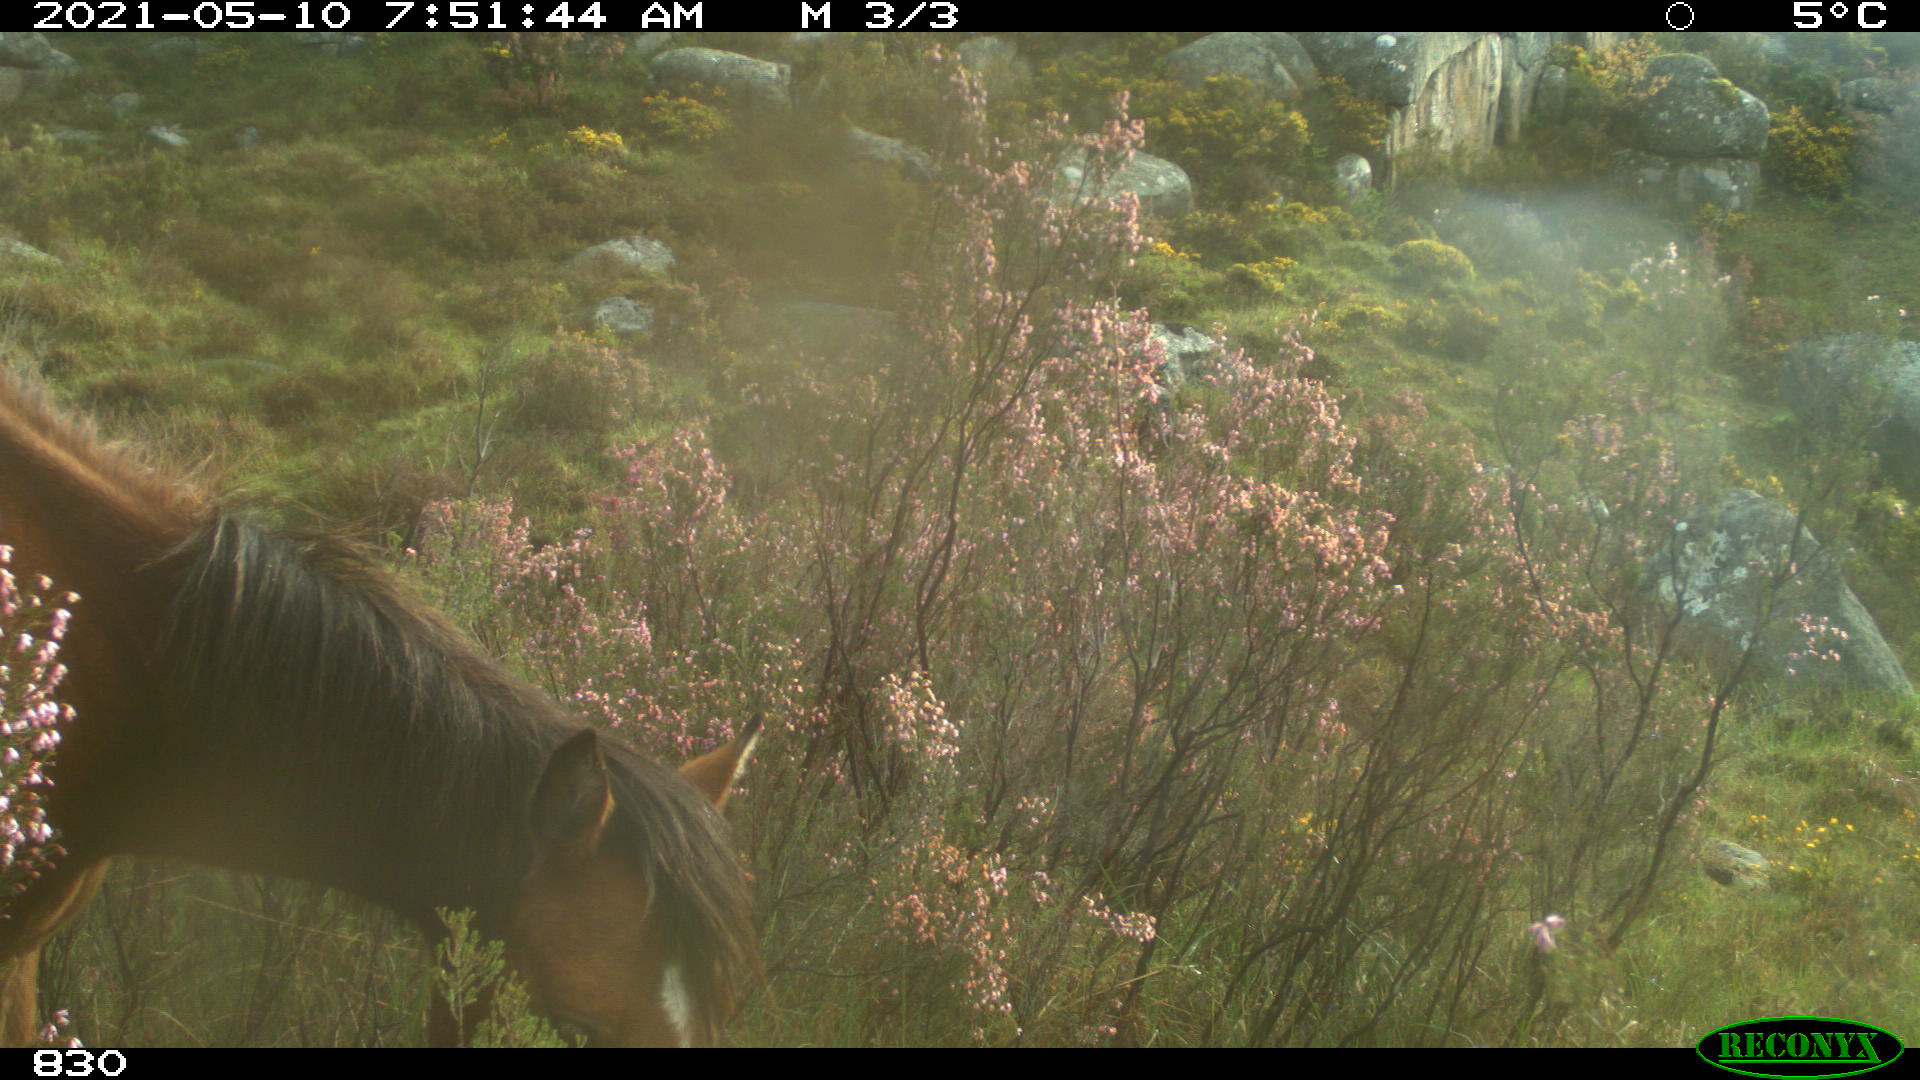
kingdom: Animalia
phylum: Chordata
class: Mammalia
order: Perissodactyla
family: Equidae
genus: Equus
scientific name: Equus caballus
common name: Horse
